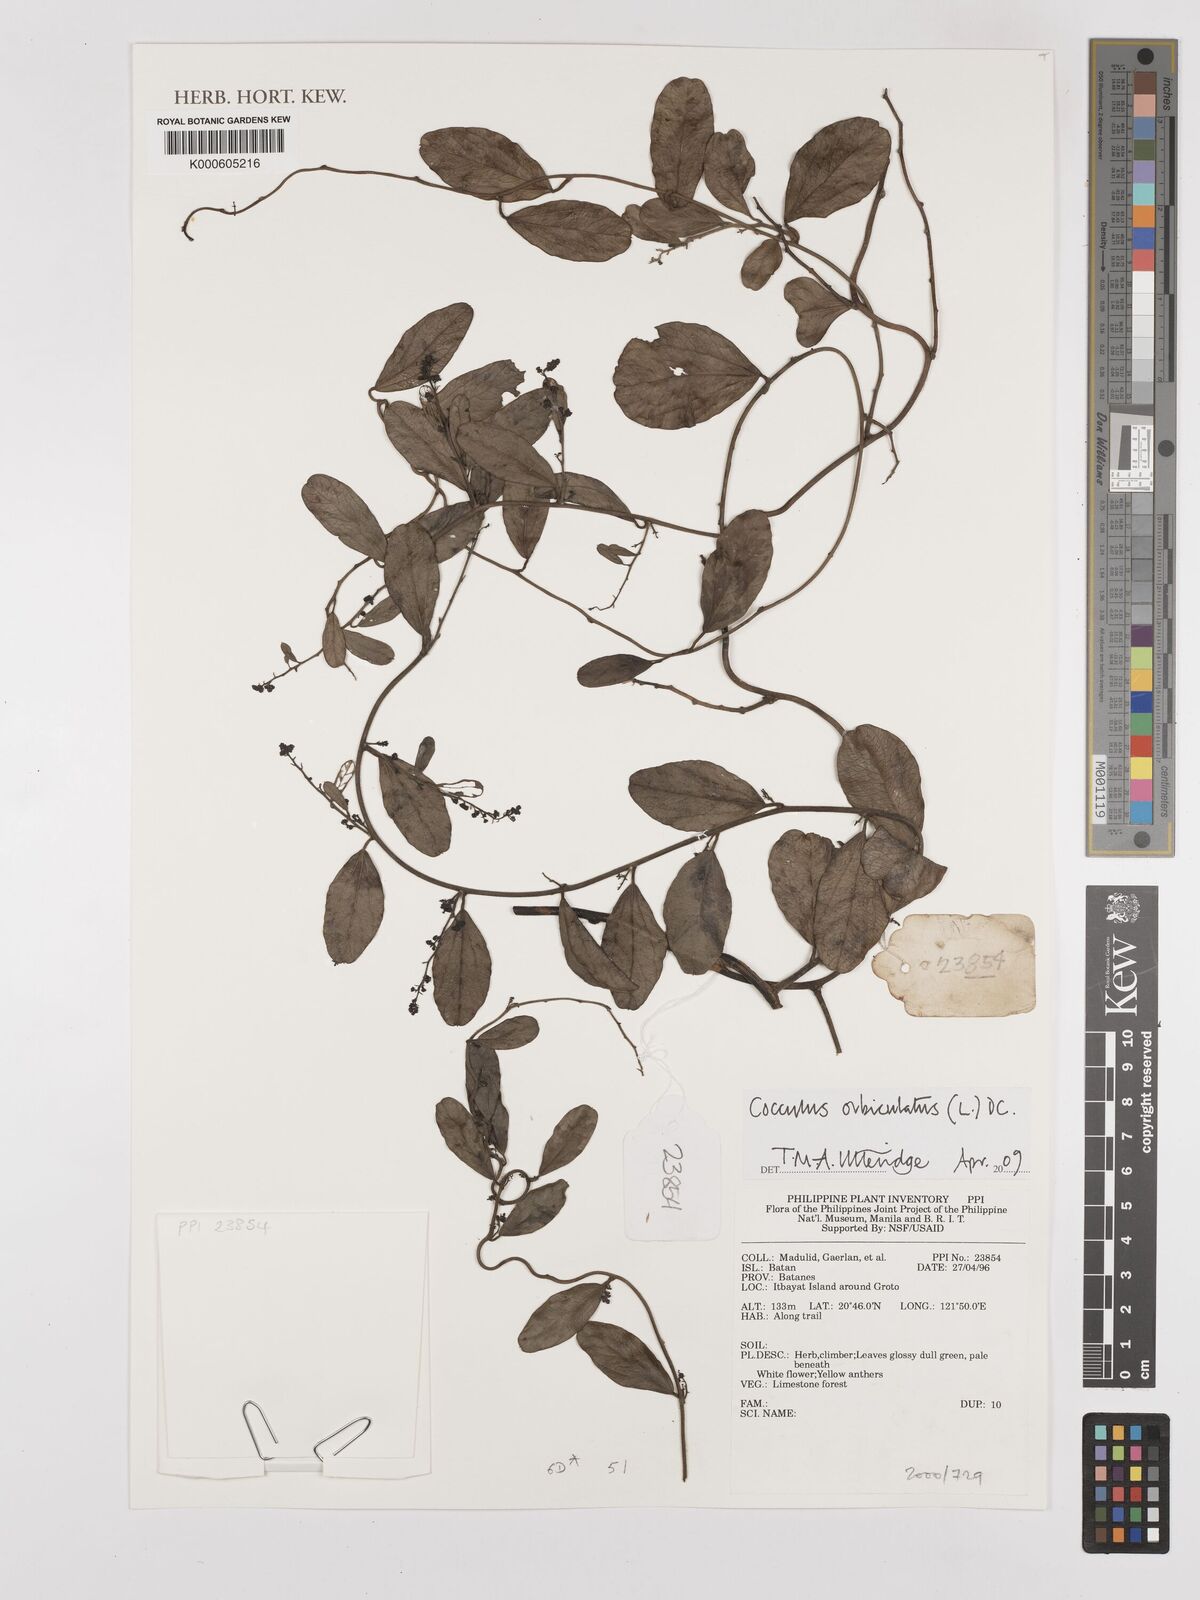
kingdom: Plantae
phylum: Tracheophyta
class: Magnoliopsida
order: Ranunculales
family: Menispermaceae
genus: Cocculus
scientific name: Cocculus orbiculatus
